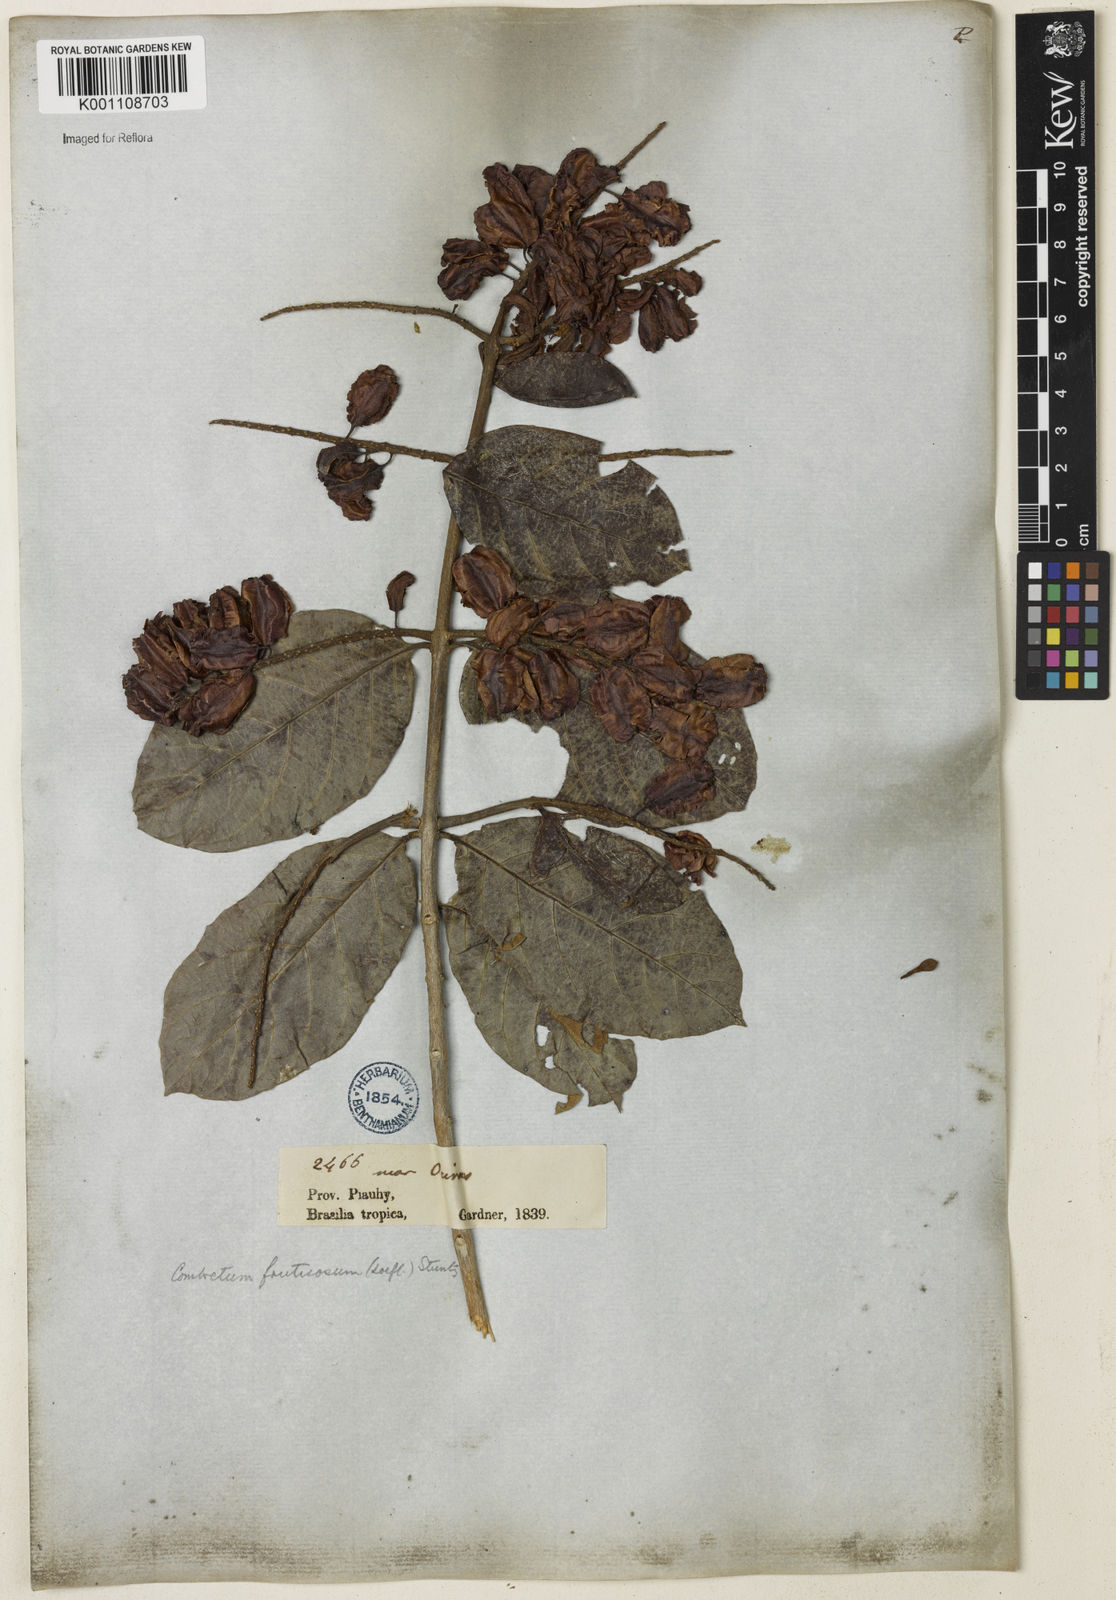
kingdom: Plantae
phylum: Tracheophyta
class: Magnoliopsida
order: Myrtales
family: Combretaceae
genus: Combretum
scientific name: Combretum fruticosum
